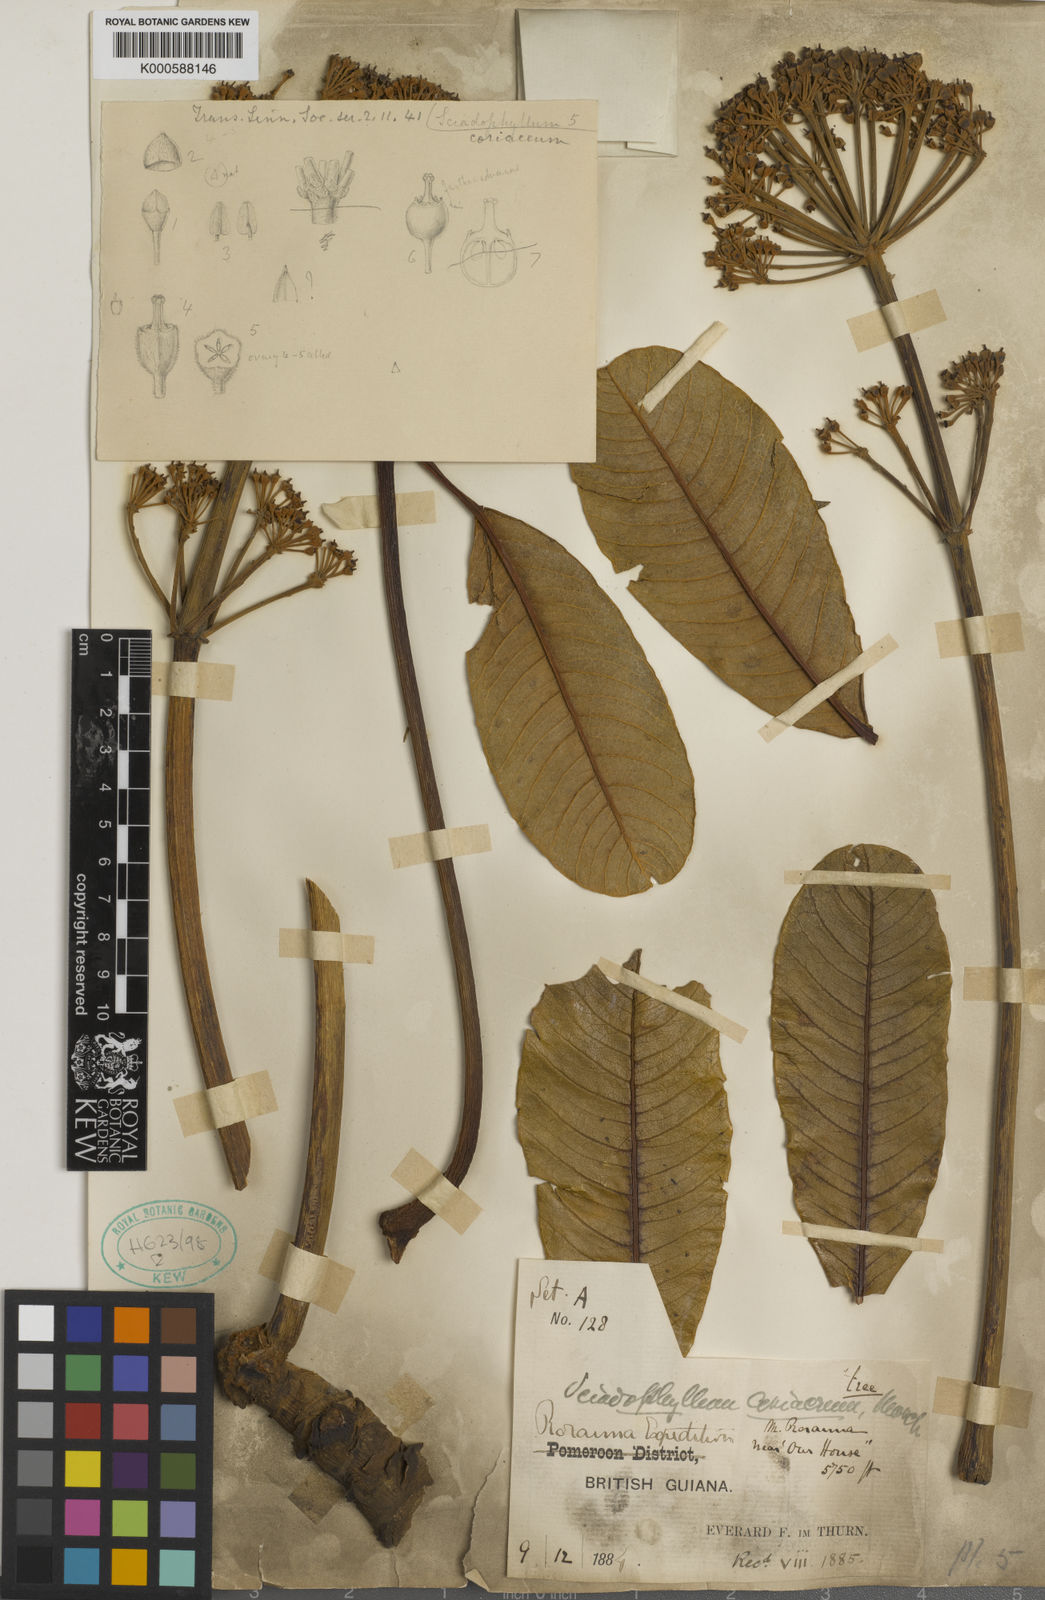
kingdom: Plantae
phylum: Tracheophyta
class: Magnoliopsida
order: Apiales
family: Araliaceae
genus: Crepinella
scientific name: Crepinella coriacea
